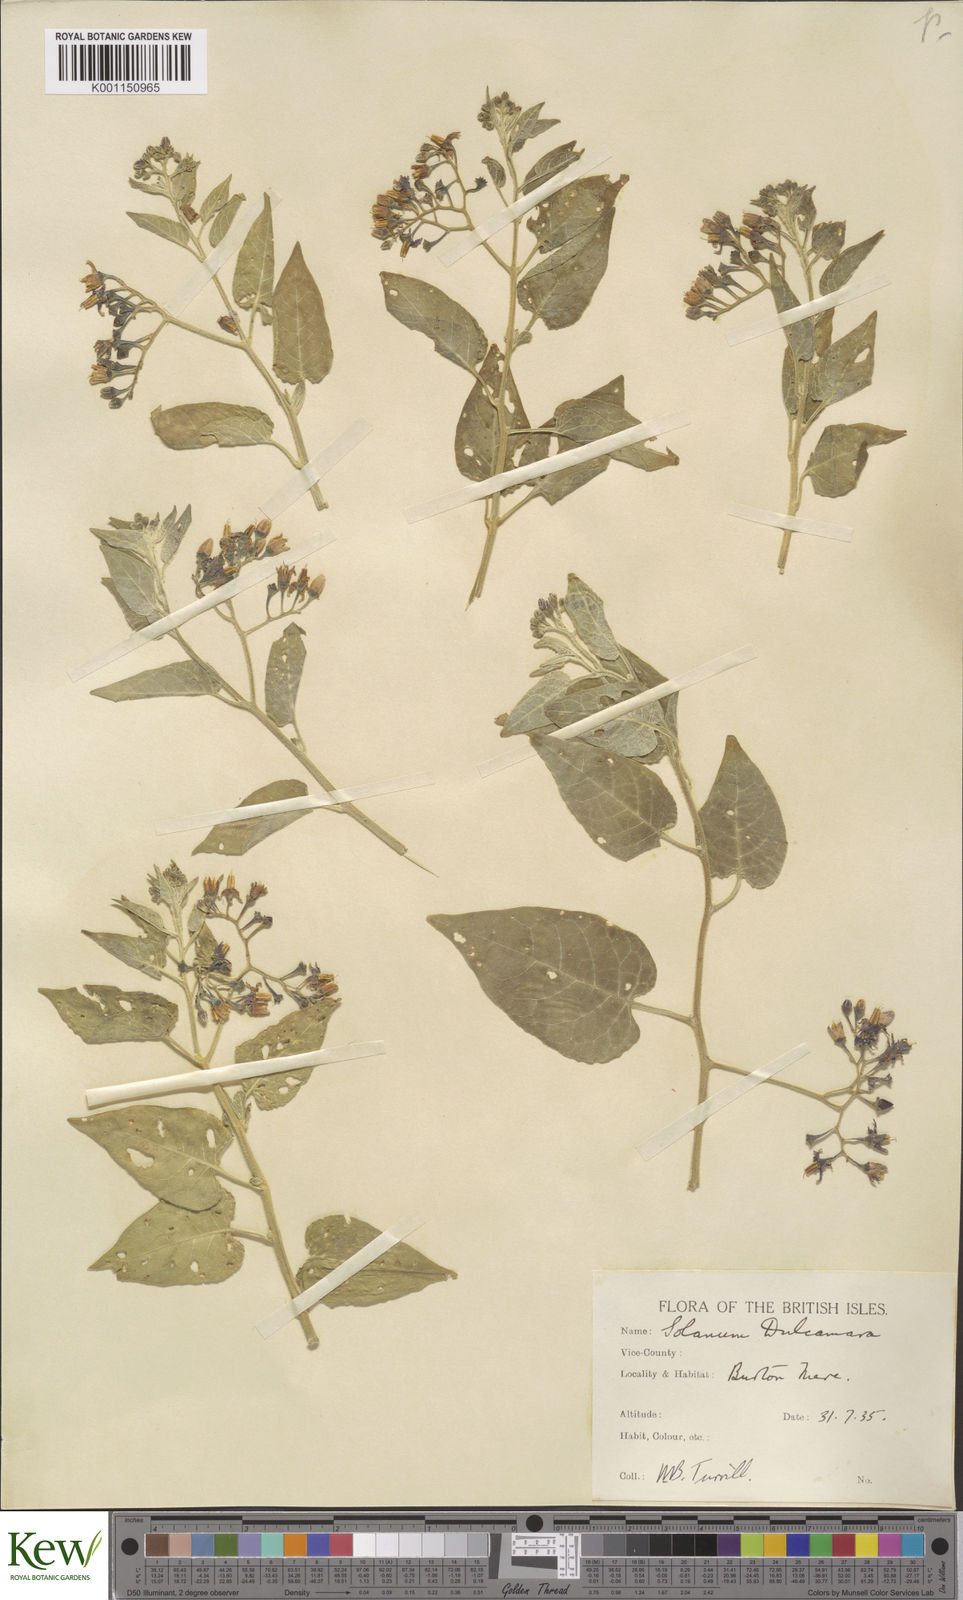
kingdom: Plantae
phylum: Tracheophyta
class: Magnoliopsida
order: Solanales
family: Solanaceae
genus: Solanum
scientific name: Solanum dulcamara
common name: Climbing nightshade
